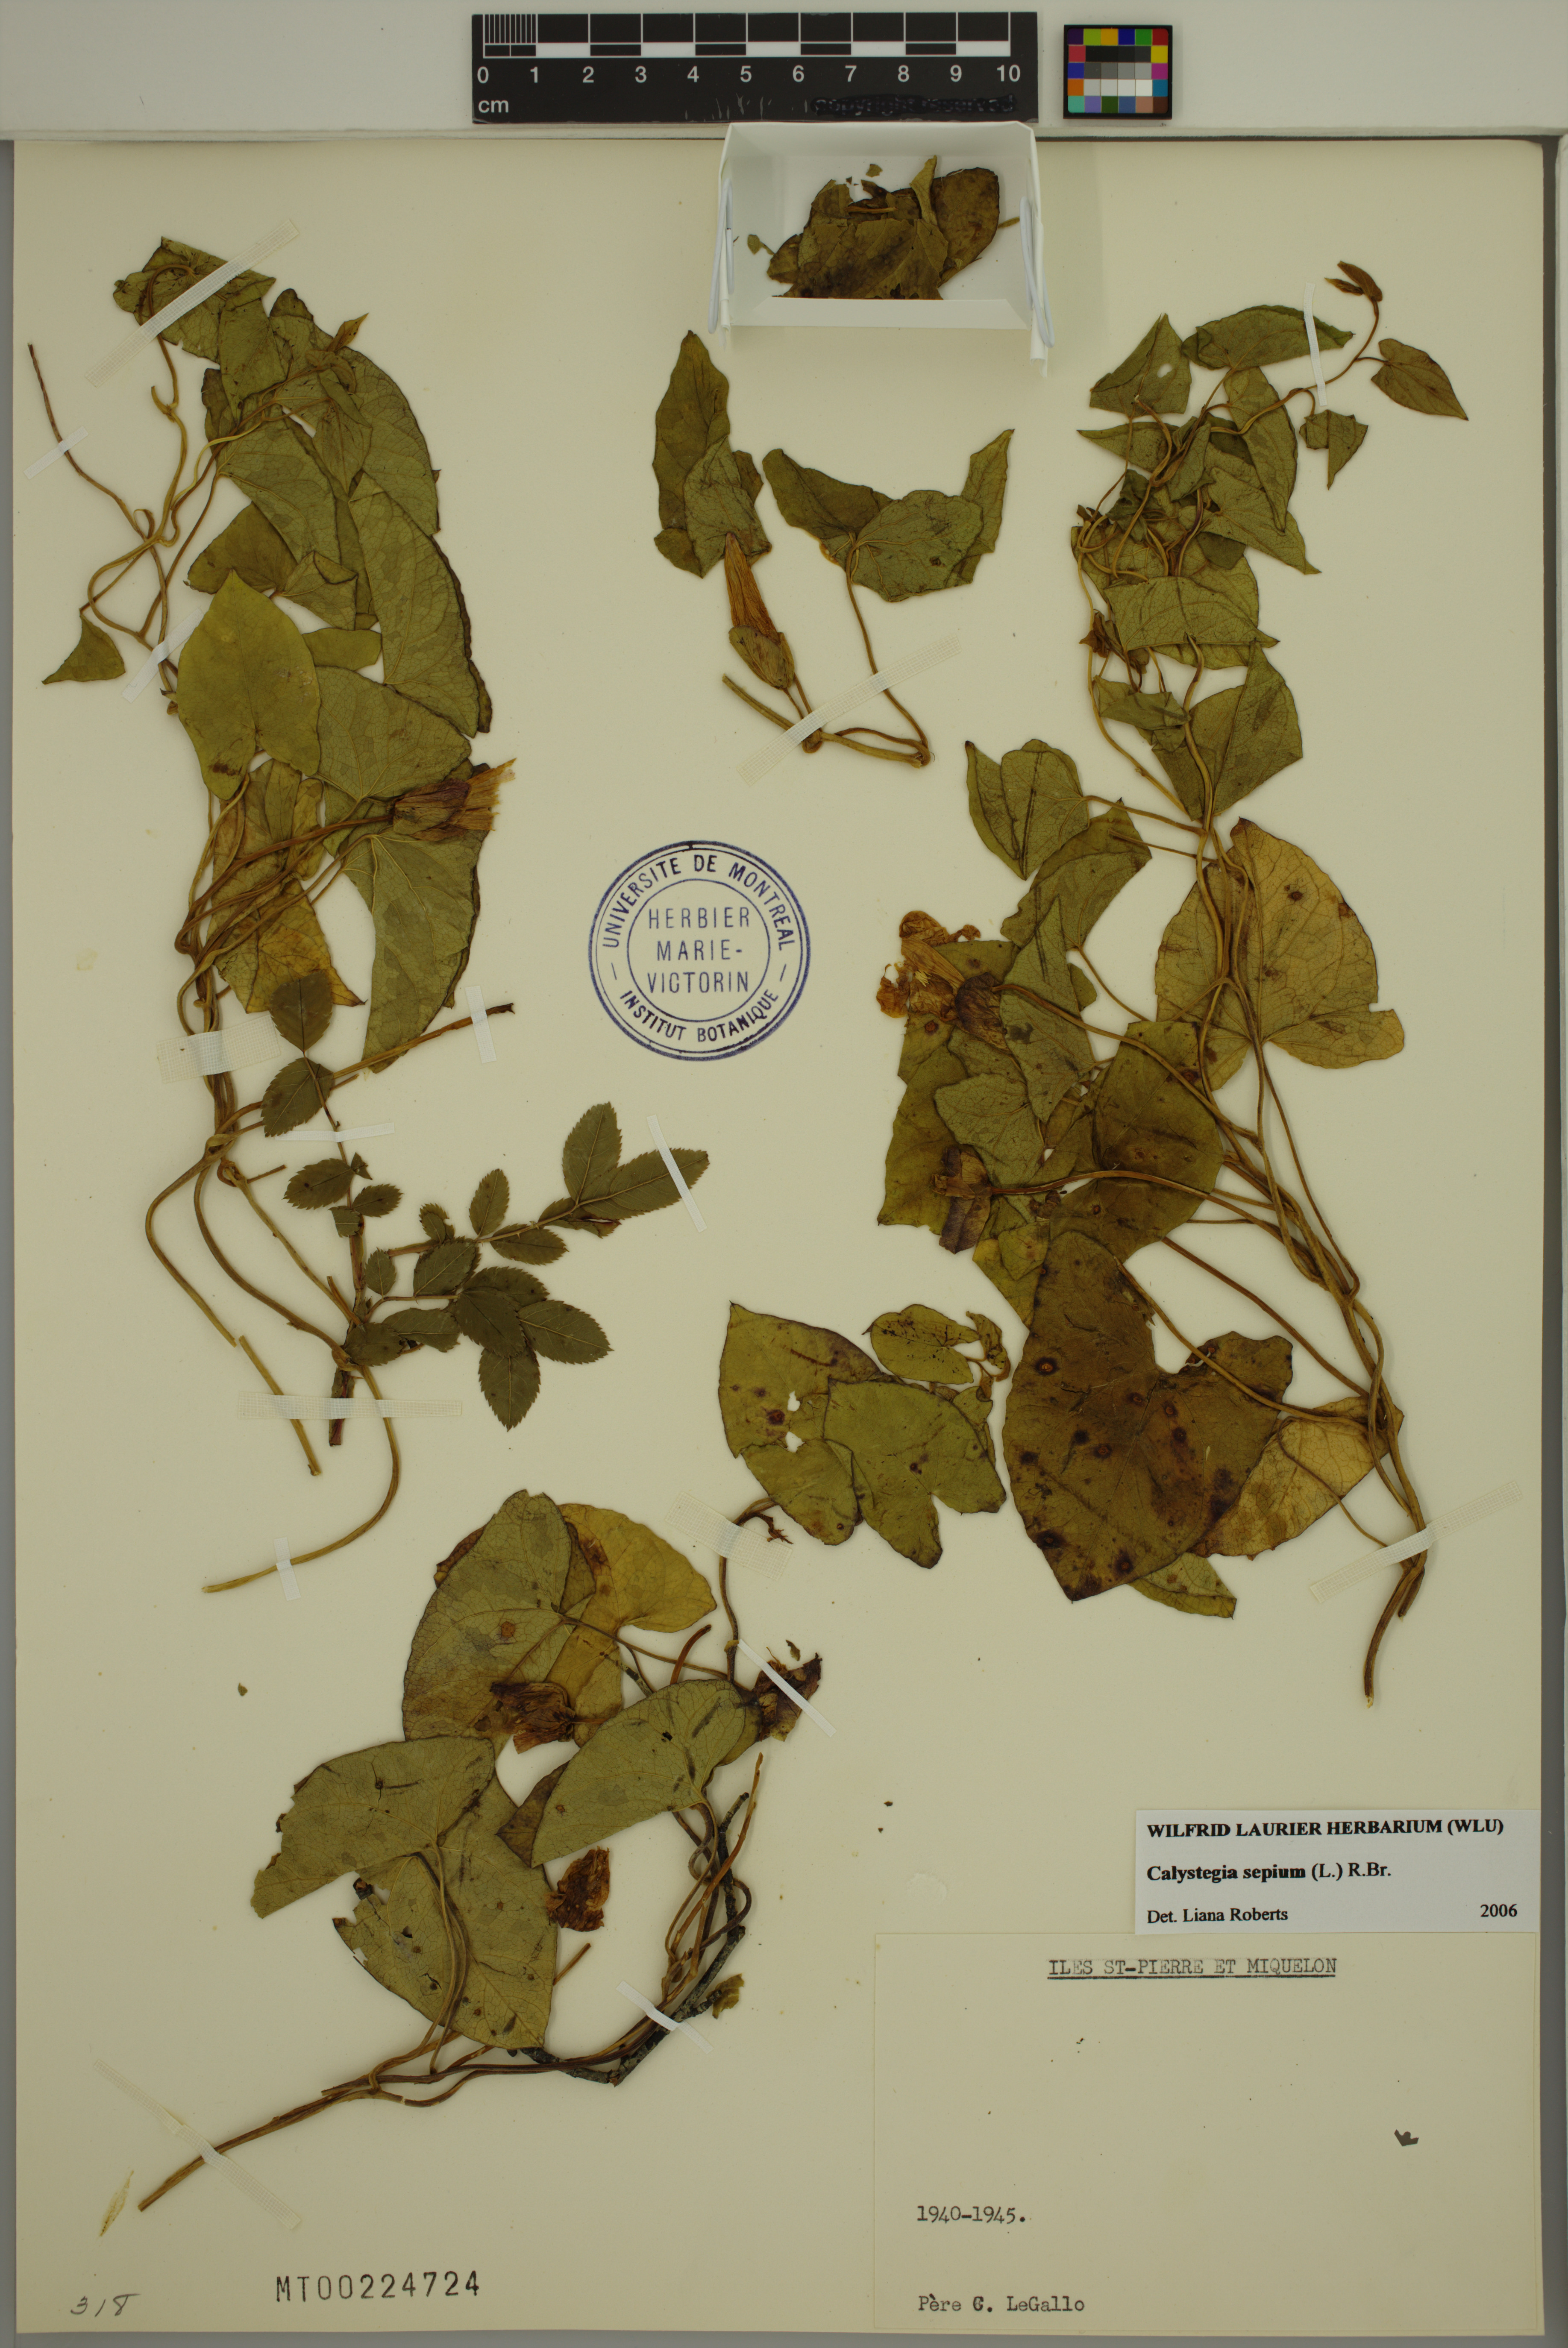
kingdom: Plantae
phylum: Tracheophyta
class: Magnoliopsida
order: Solanales
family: Convolvulaceae
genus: Calystegia
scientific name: Calystegia sepium
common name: Hedge bindweed
